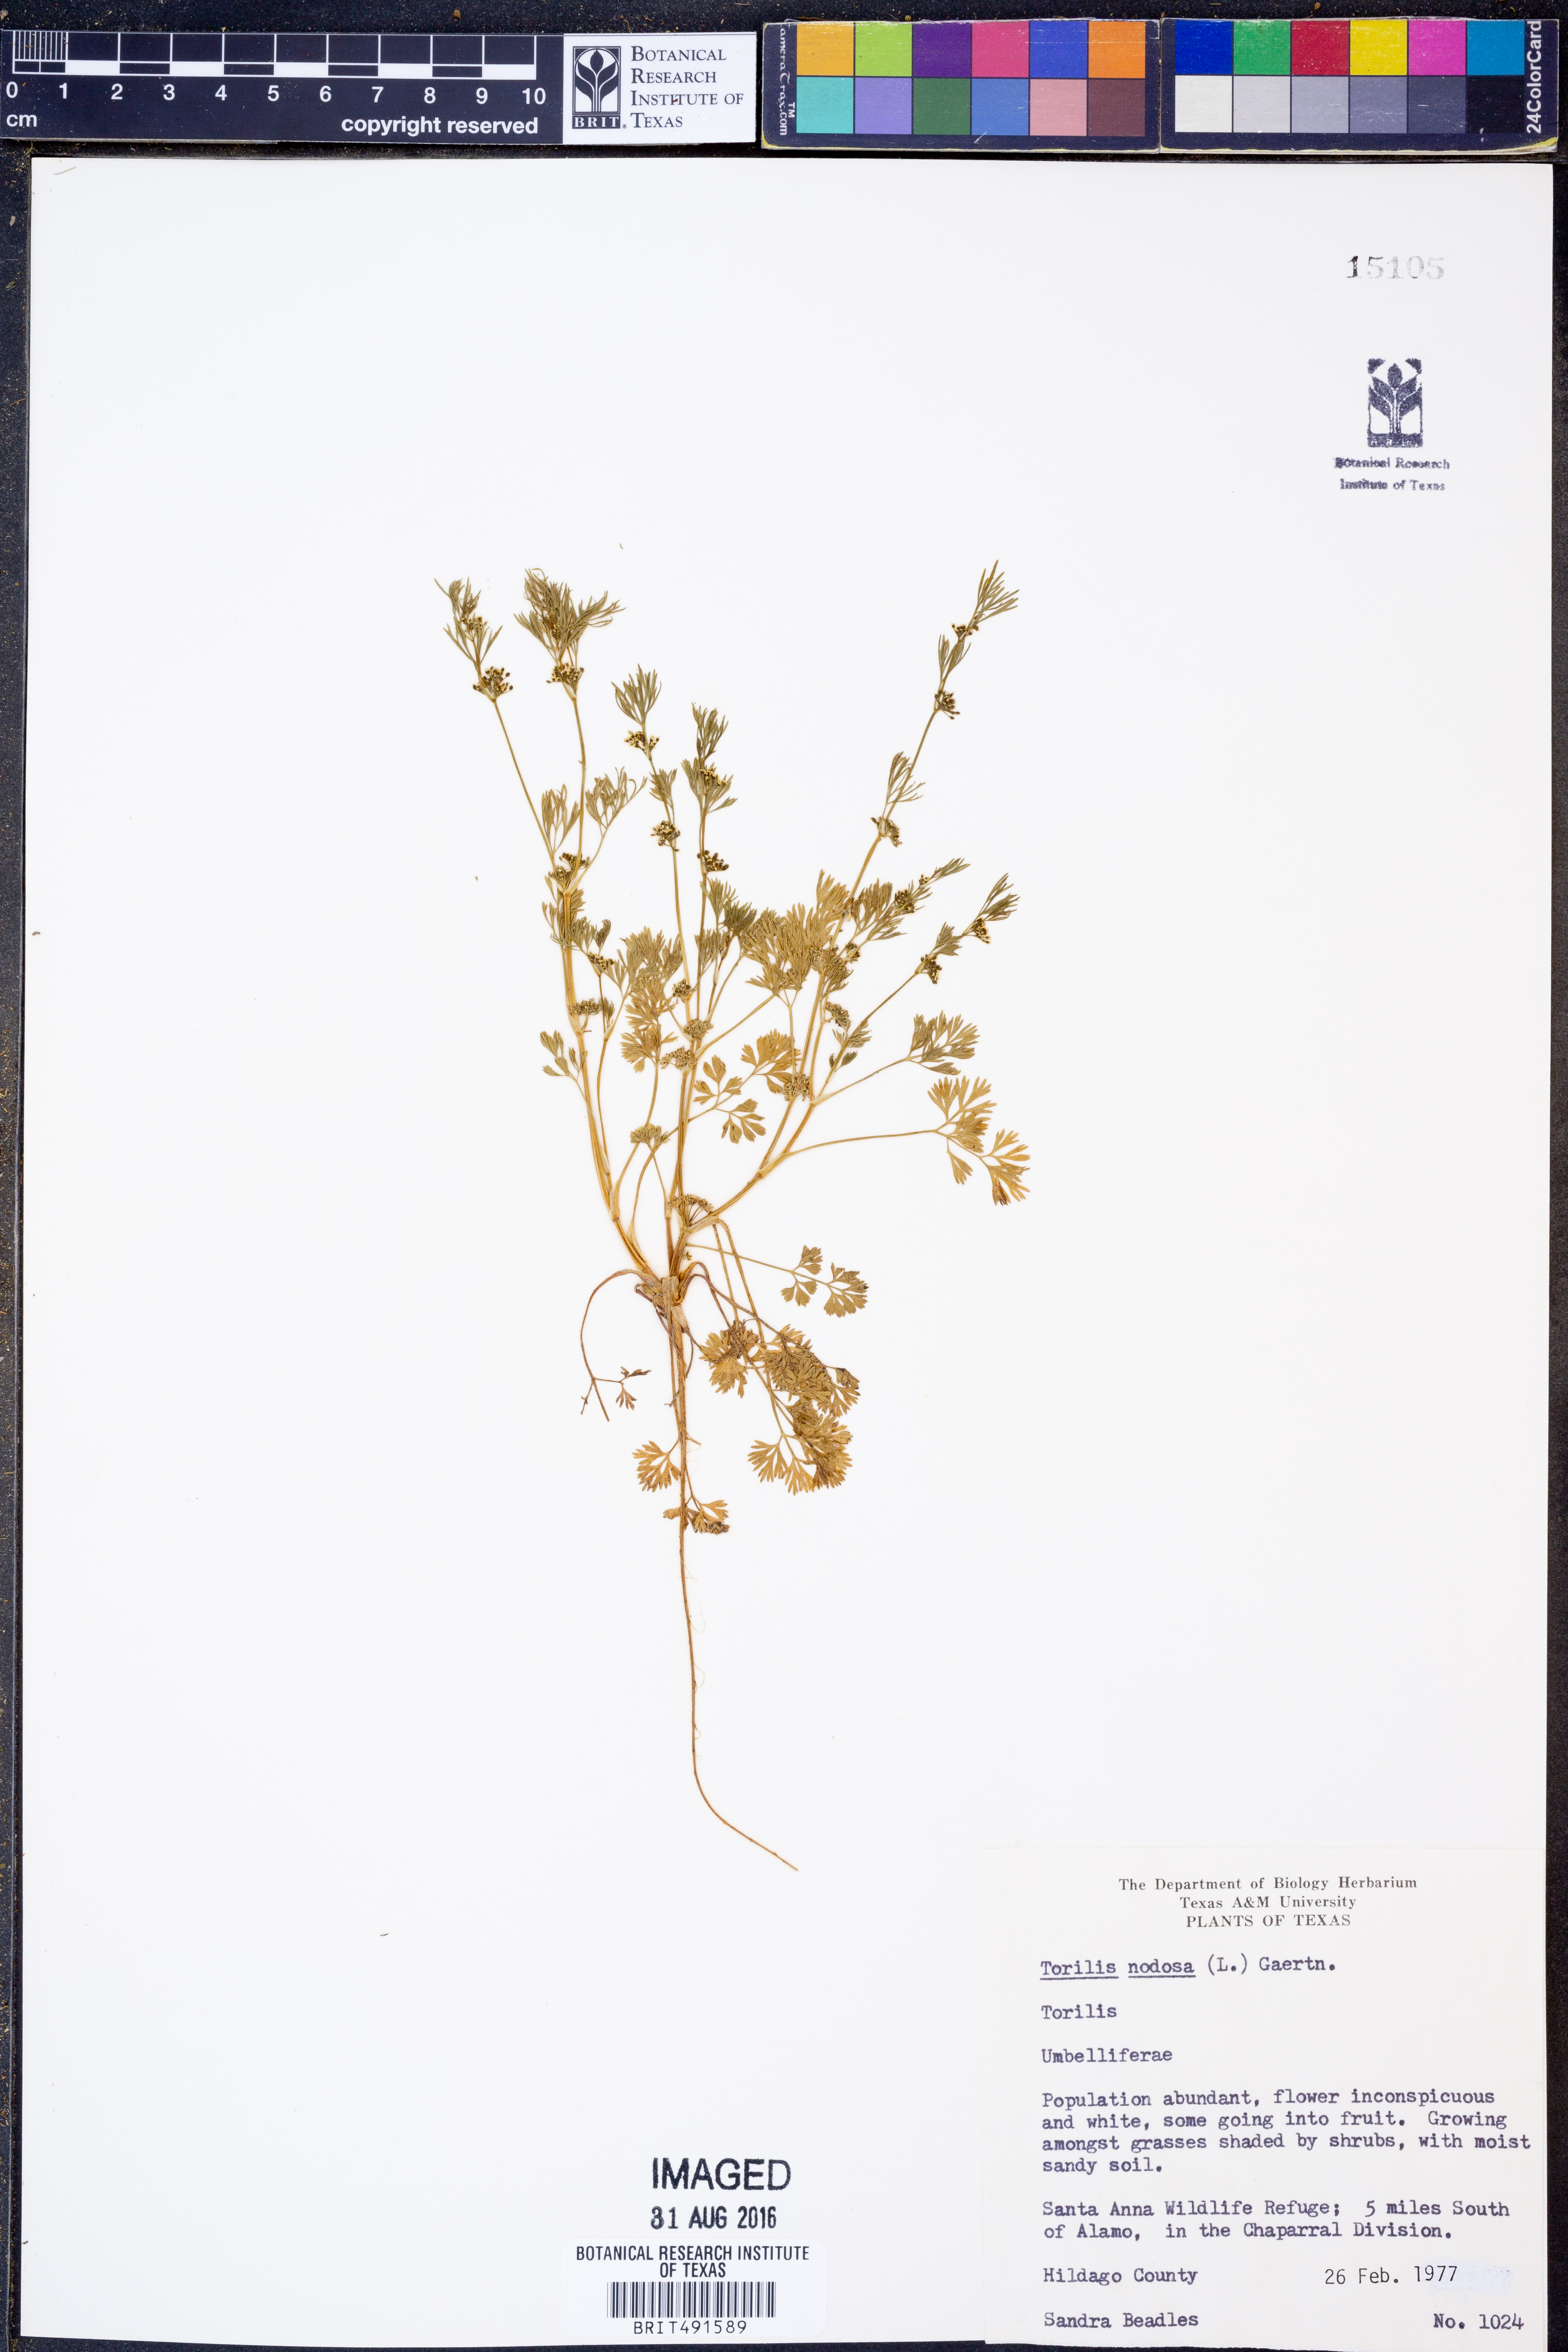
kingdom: Plantae
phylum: Tracheophyta
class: Magnoliopsida
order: Apiales
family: Apiaceae
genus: Torilis
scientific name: Torilis nodosa
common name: Knotted hedge-parsley
